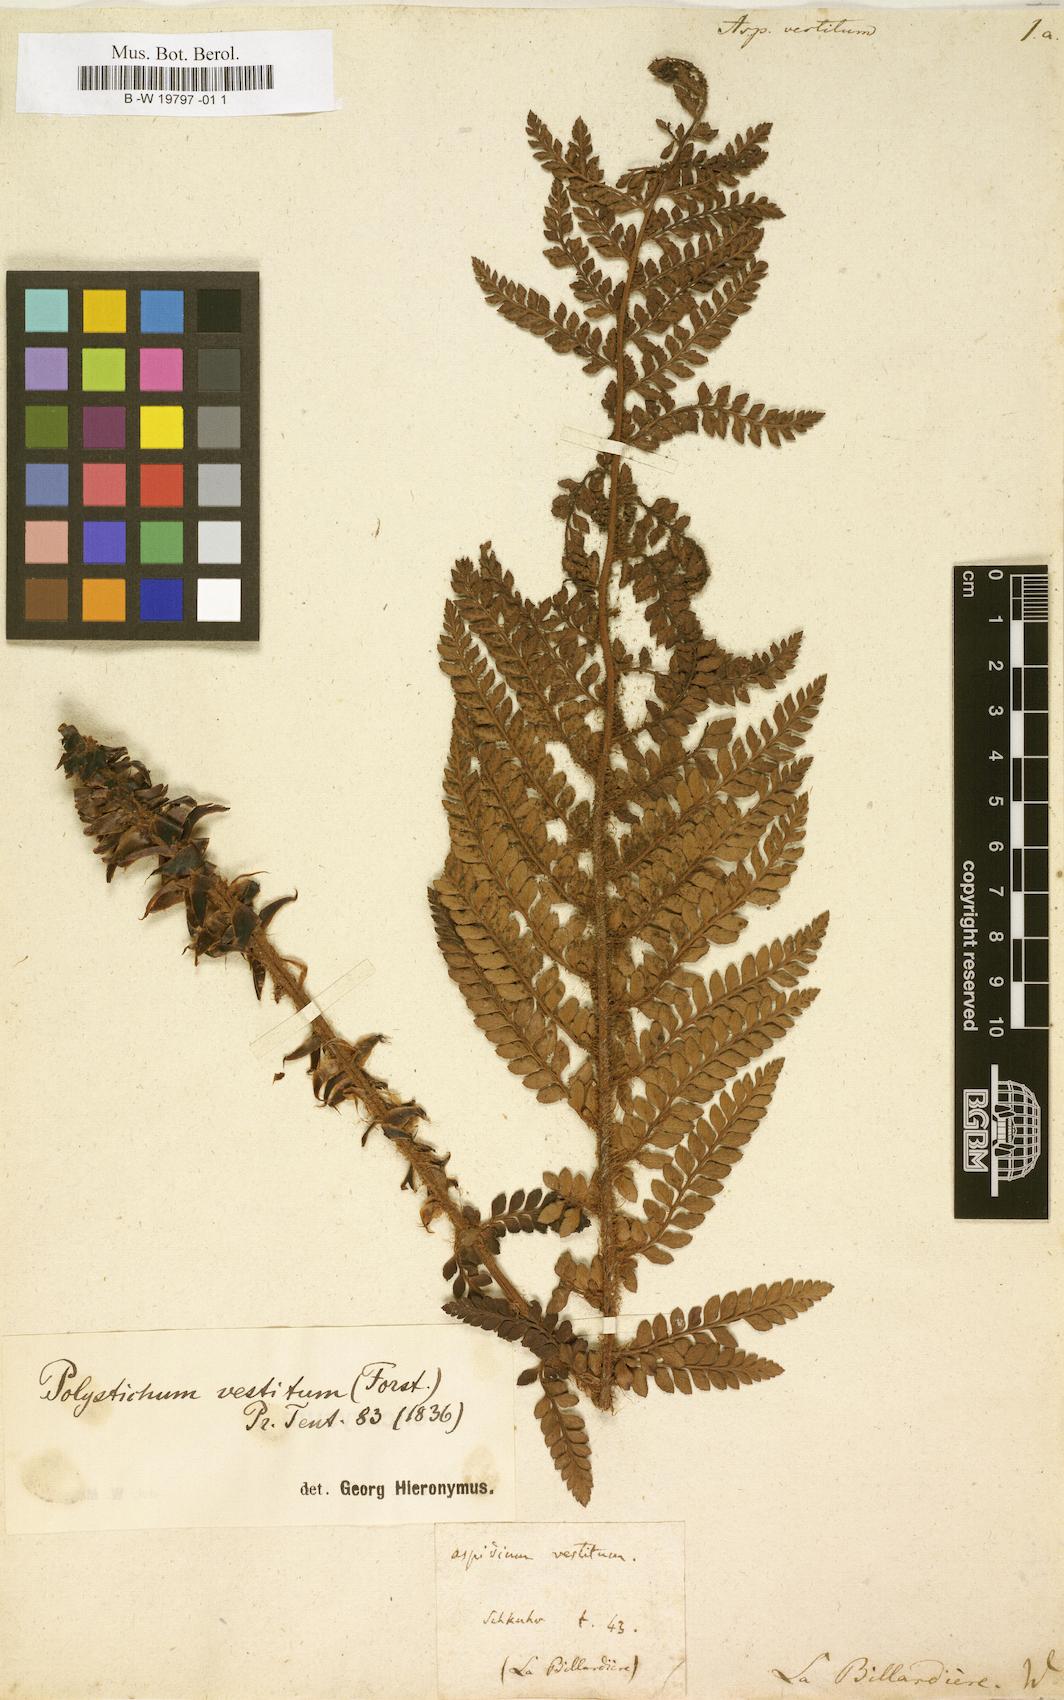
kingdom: Plantae
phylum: Tracheophyta
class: Polypodiopsida
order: Polypodiales
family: Dryopteridaceae
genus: Polystichum
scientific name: Polystichum vestitum
